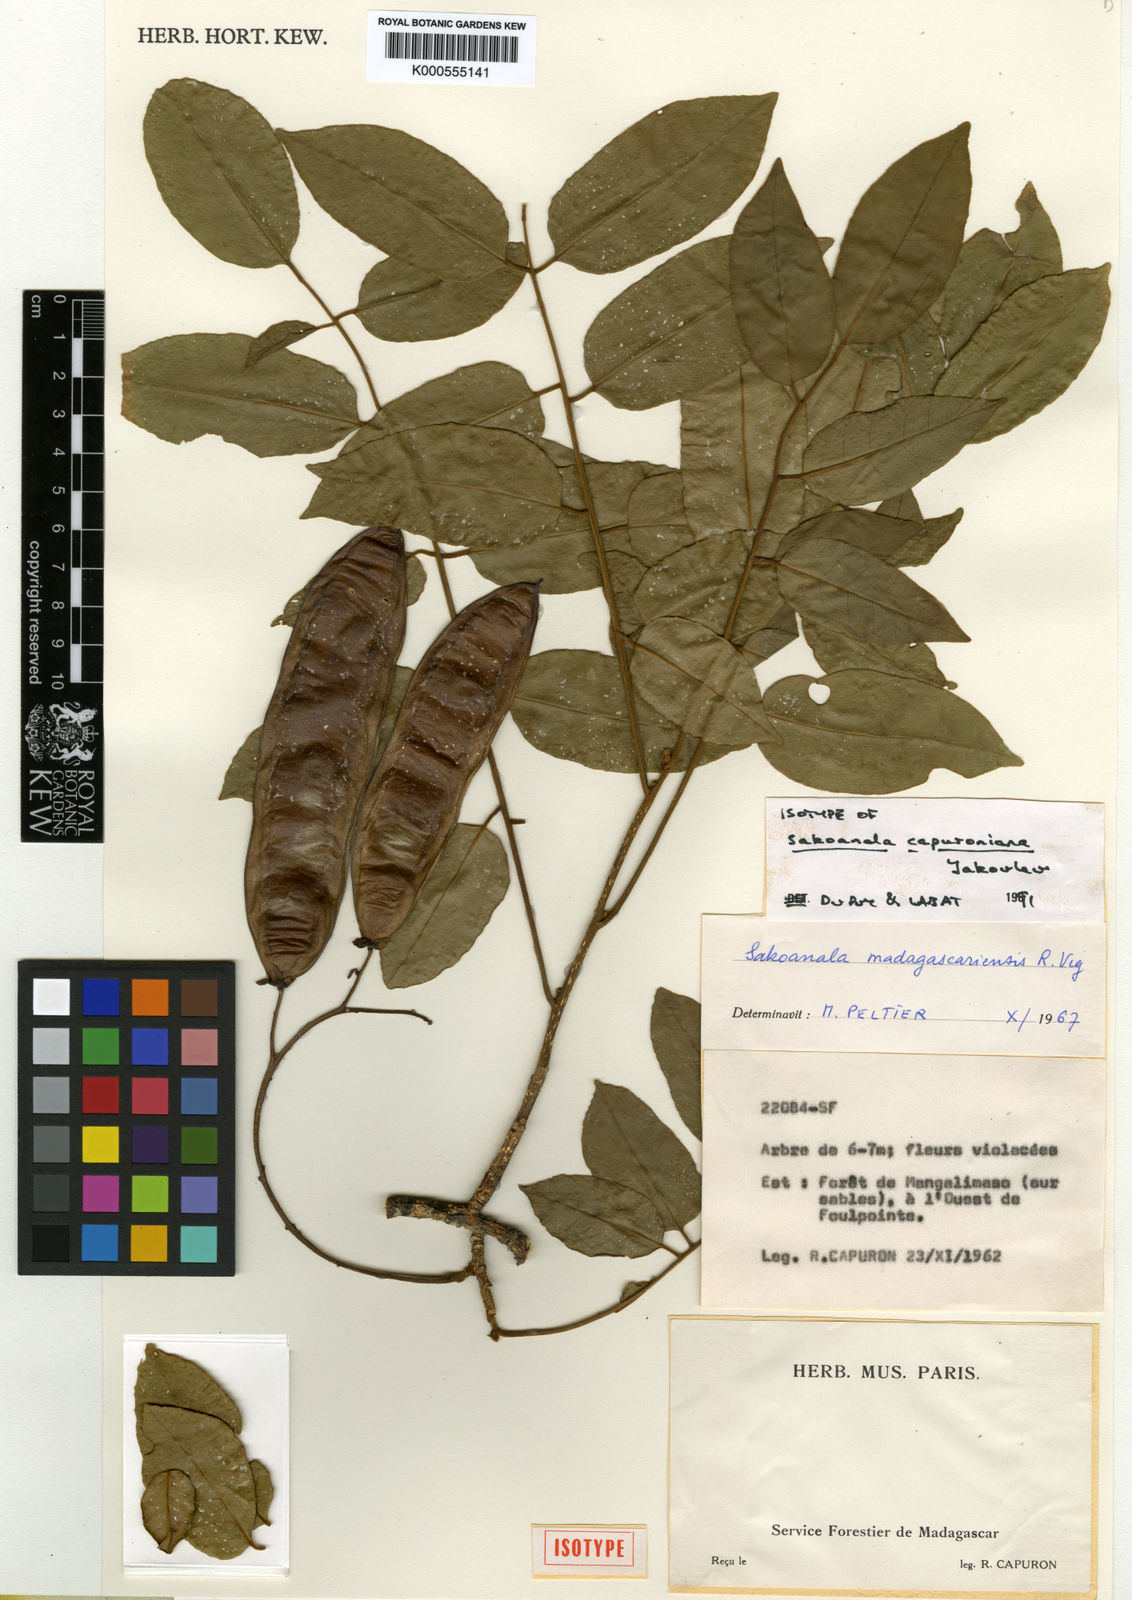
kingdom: Plantae
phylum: Tracheophyta
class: Magnoliopsida
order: Fabales
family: Fabaceae
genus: Sakoanala
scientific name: Sakoanala madagascariensis
